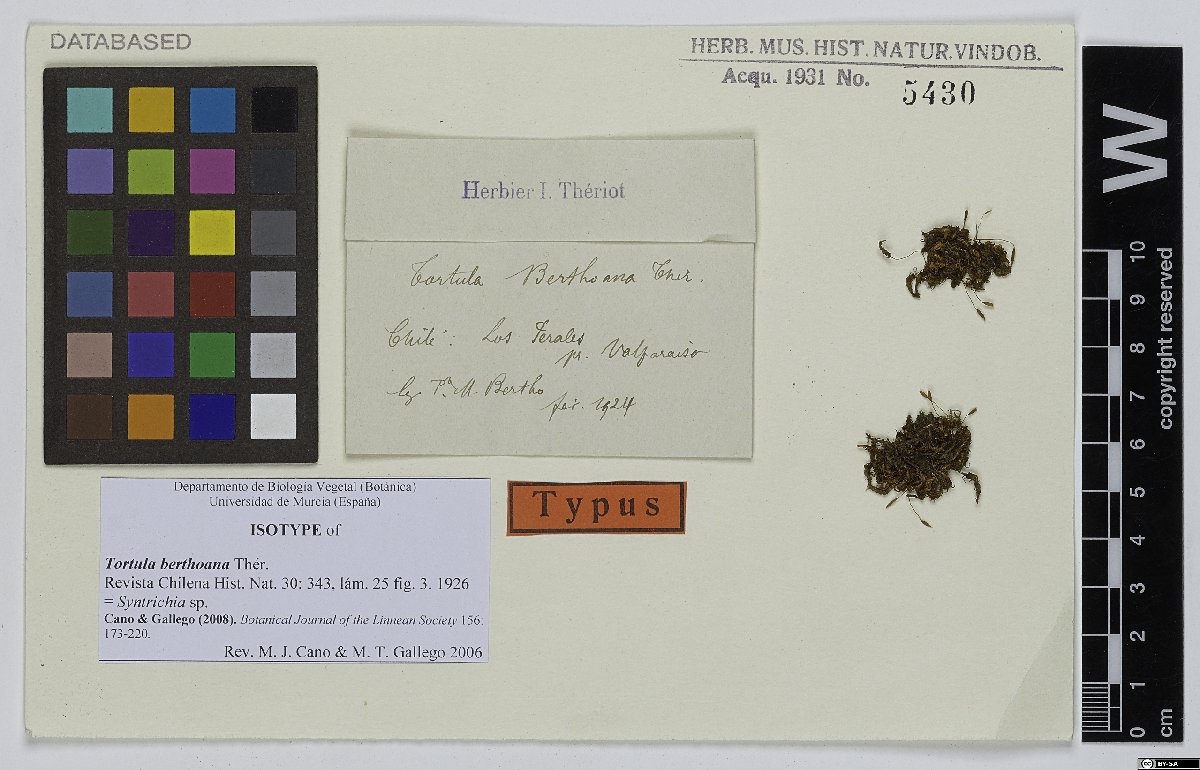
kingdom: Plantae
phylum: Bryophyta
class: Bryopsida
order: Pottiales
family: Pottiaceae
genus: Syntrichia
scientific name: Syntrichia berthoana
